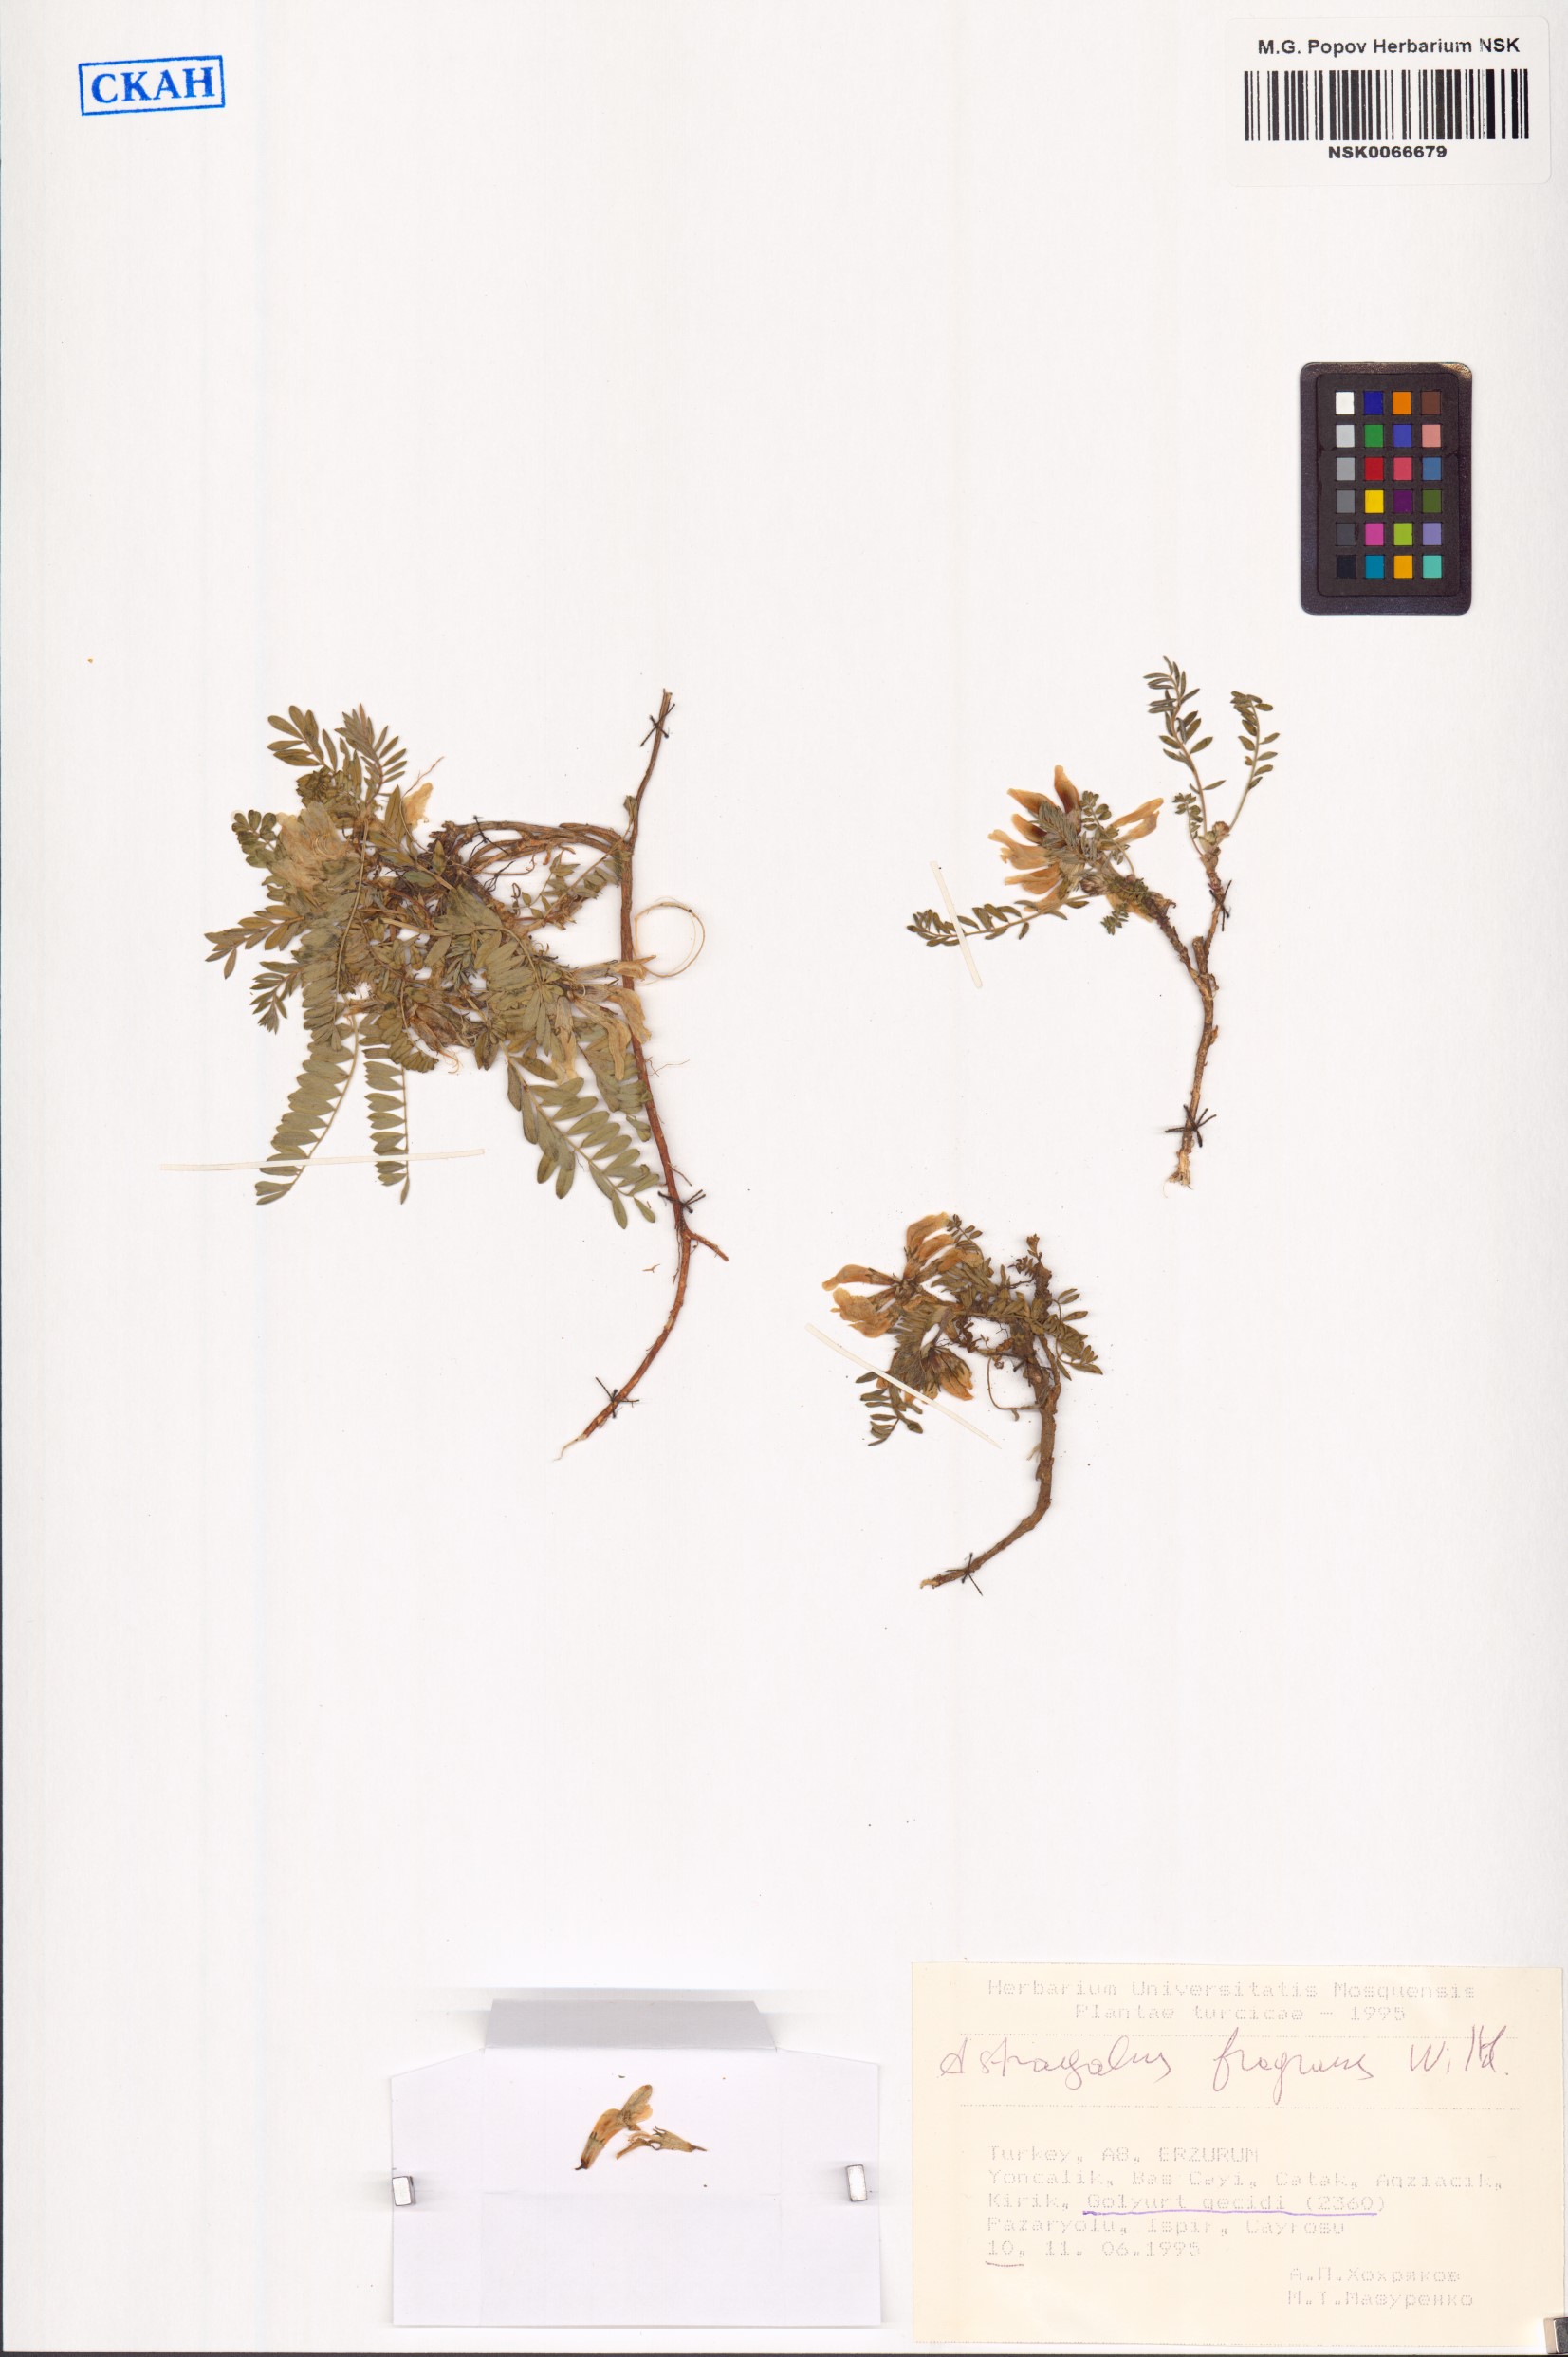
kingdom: Plantae
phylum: Tracheophyta
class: Magnoliopsida
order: Fabales
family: Fabaceae
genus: Astragalus
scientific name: Astragalus fragrans
